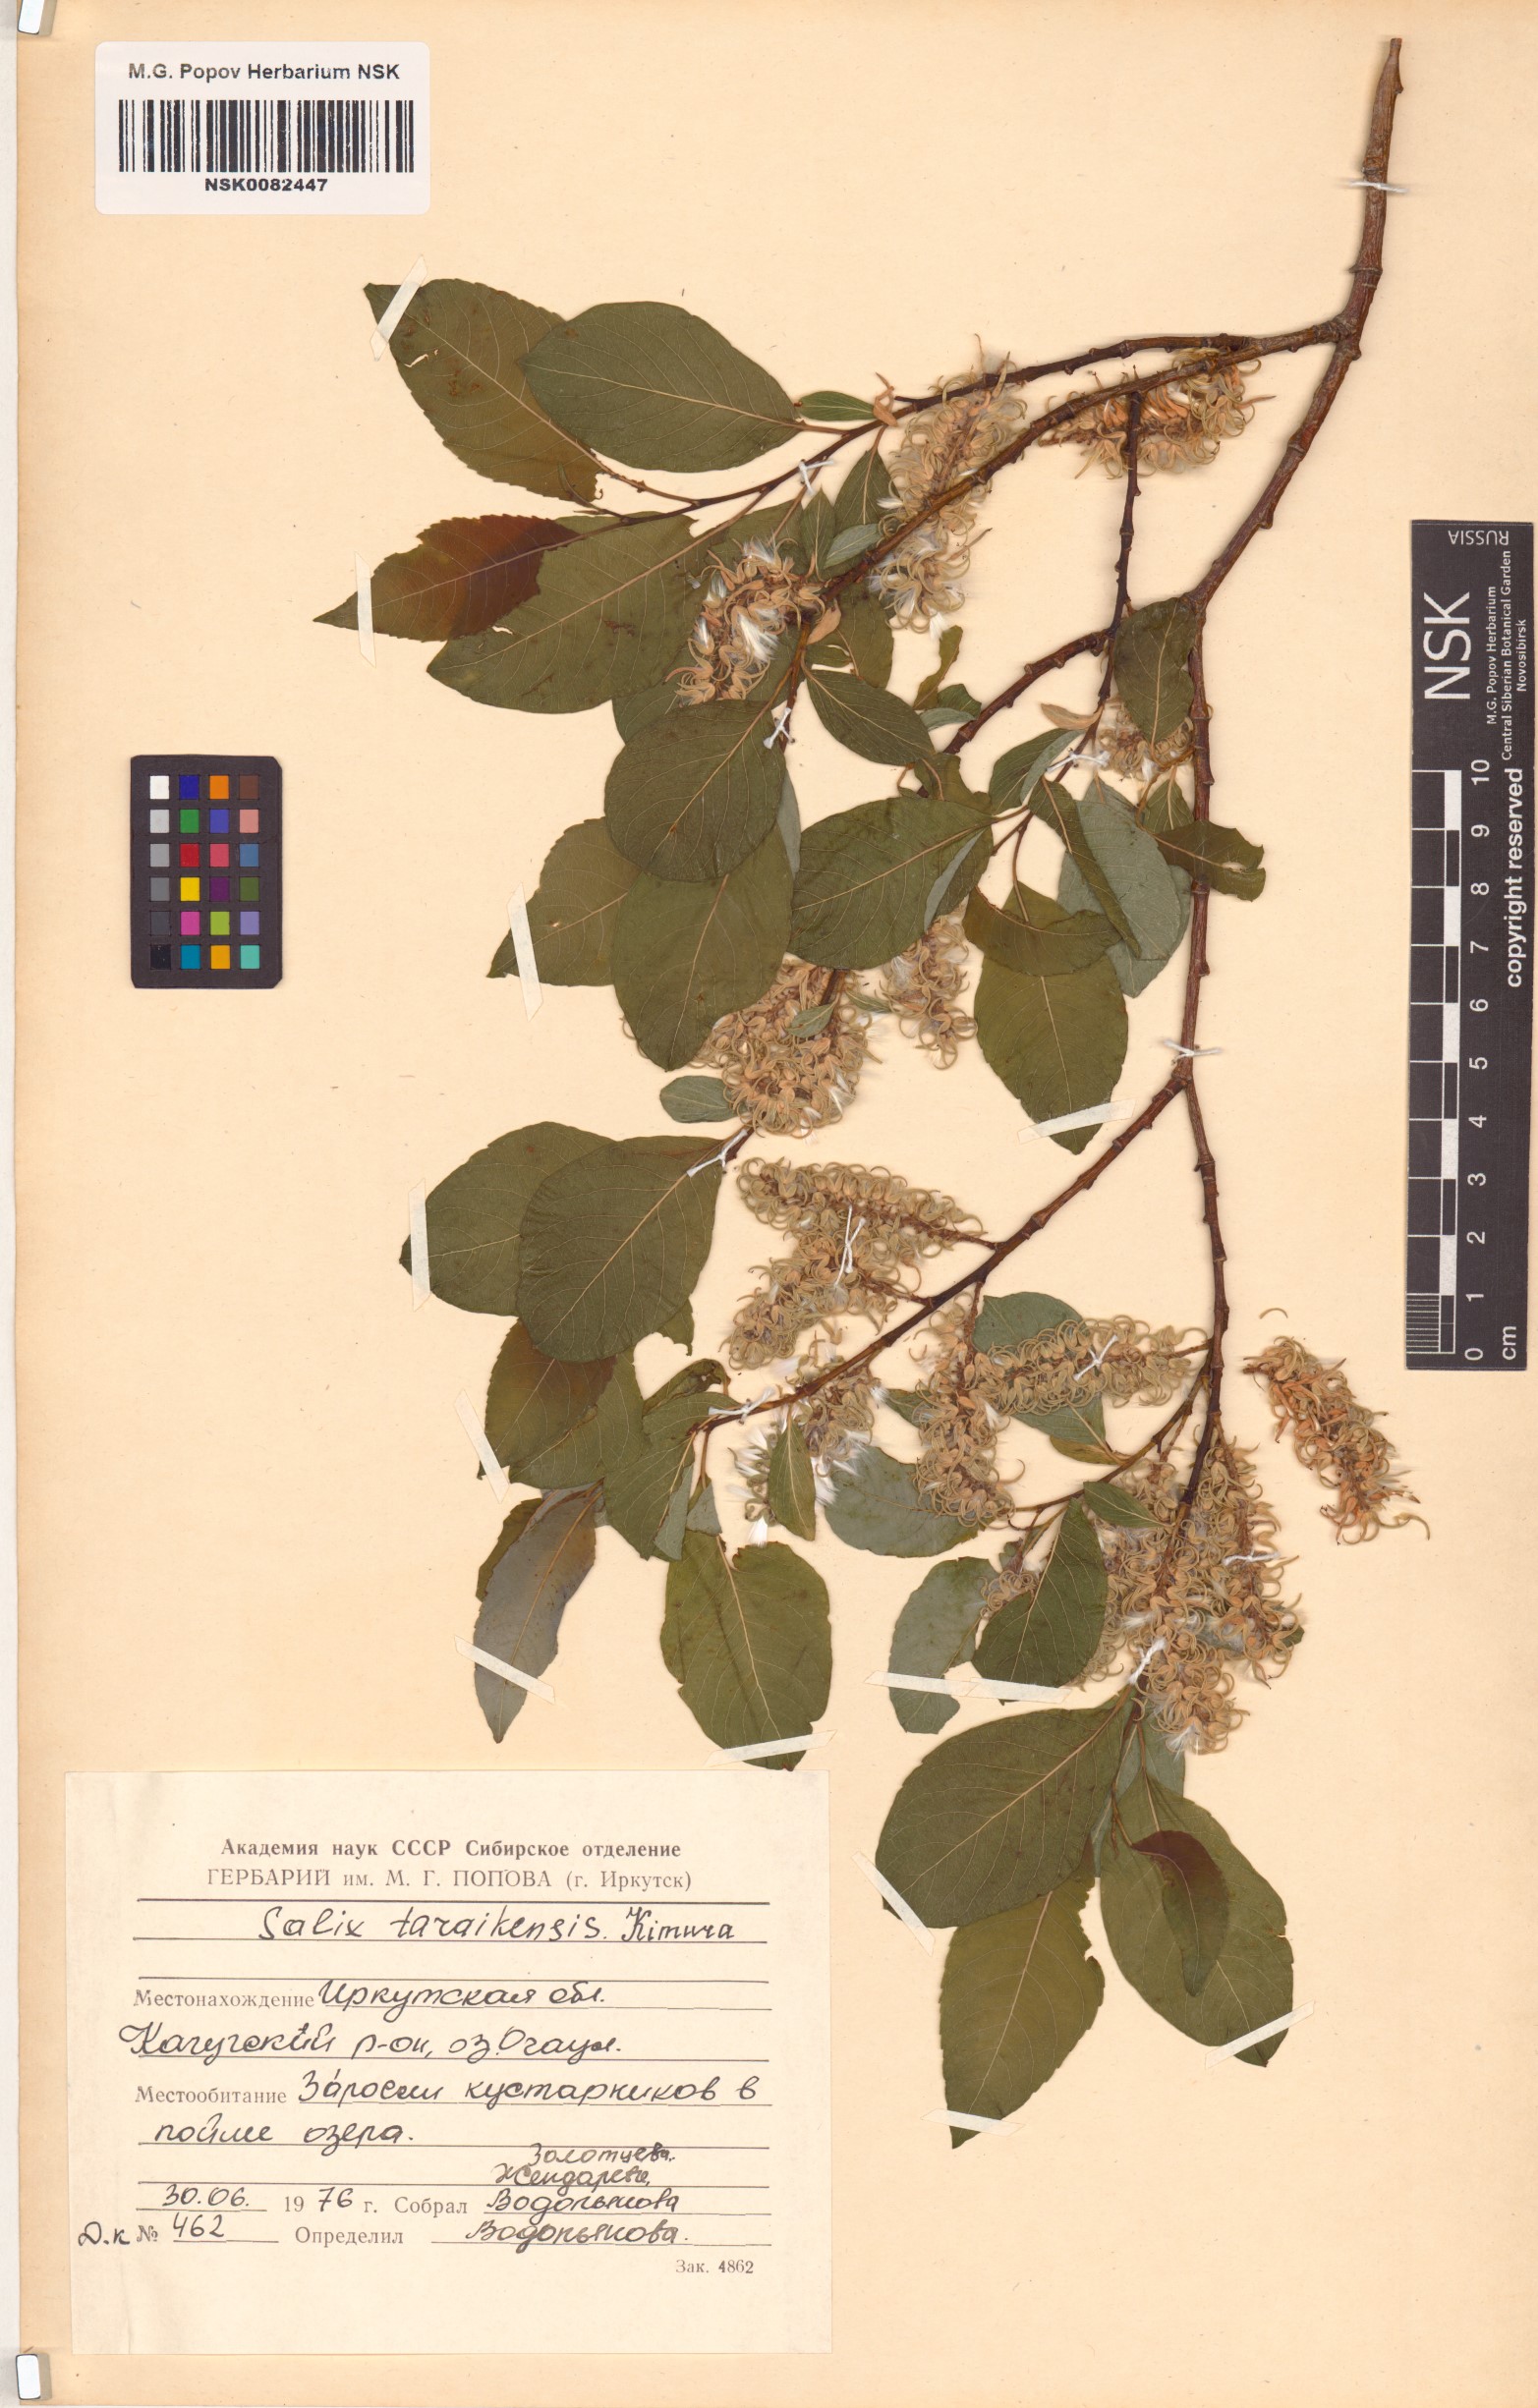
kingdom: Plantae
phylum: Tracheophyta
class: Magnoliopsida
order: Malpighiales
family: Salicaceae
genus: Salix
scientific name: Salix taraikensis
